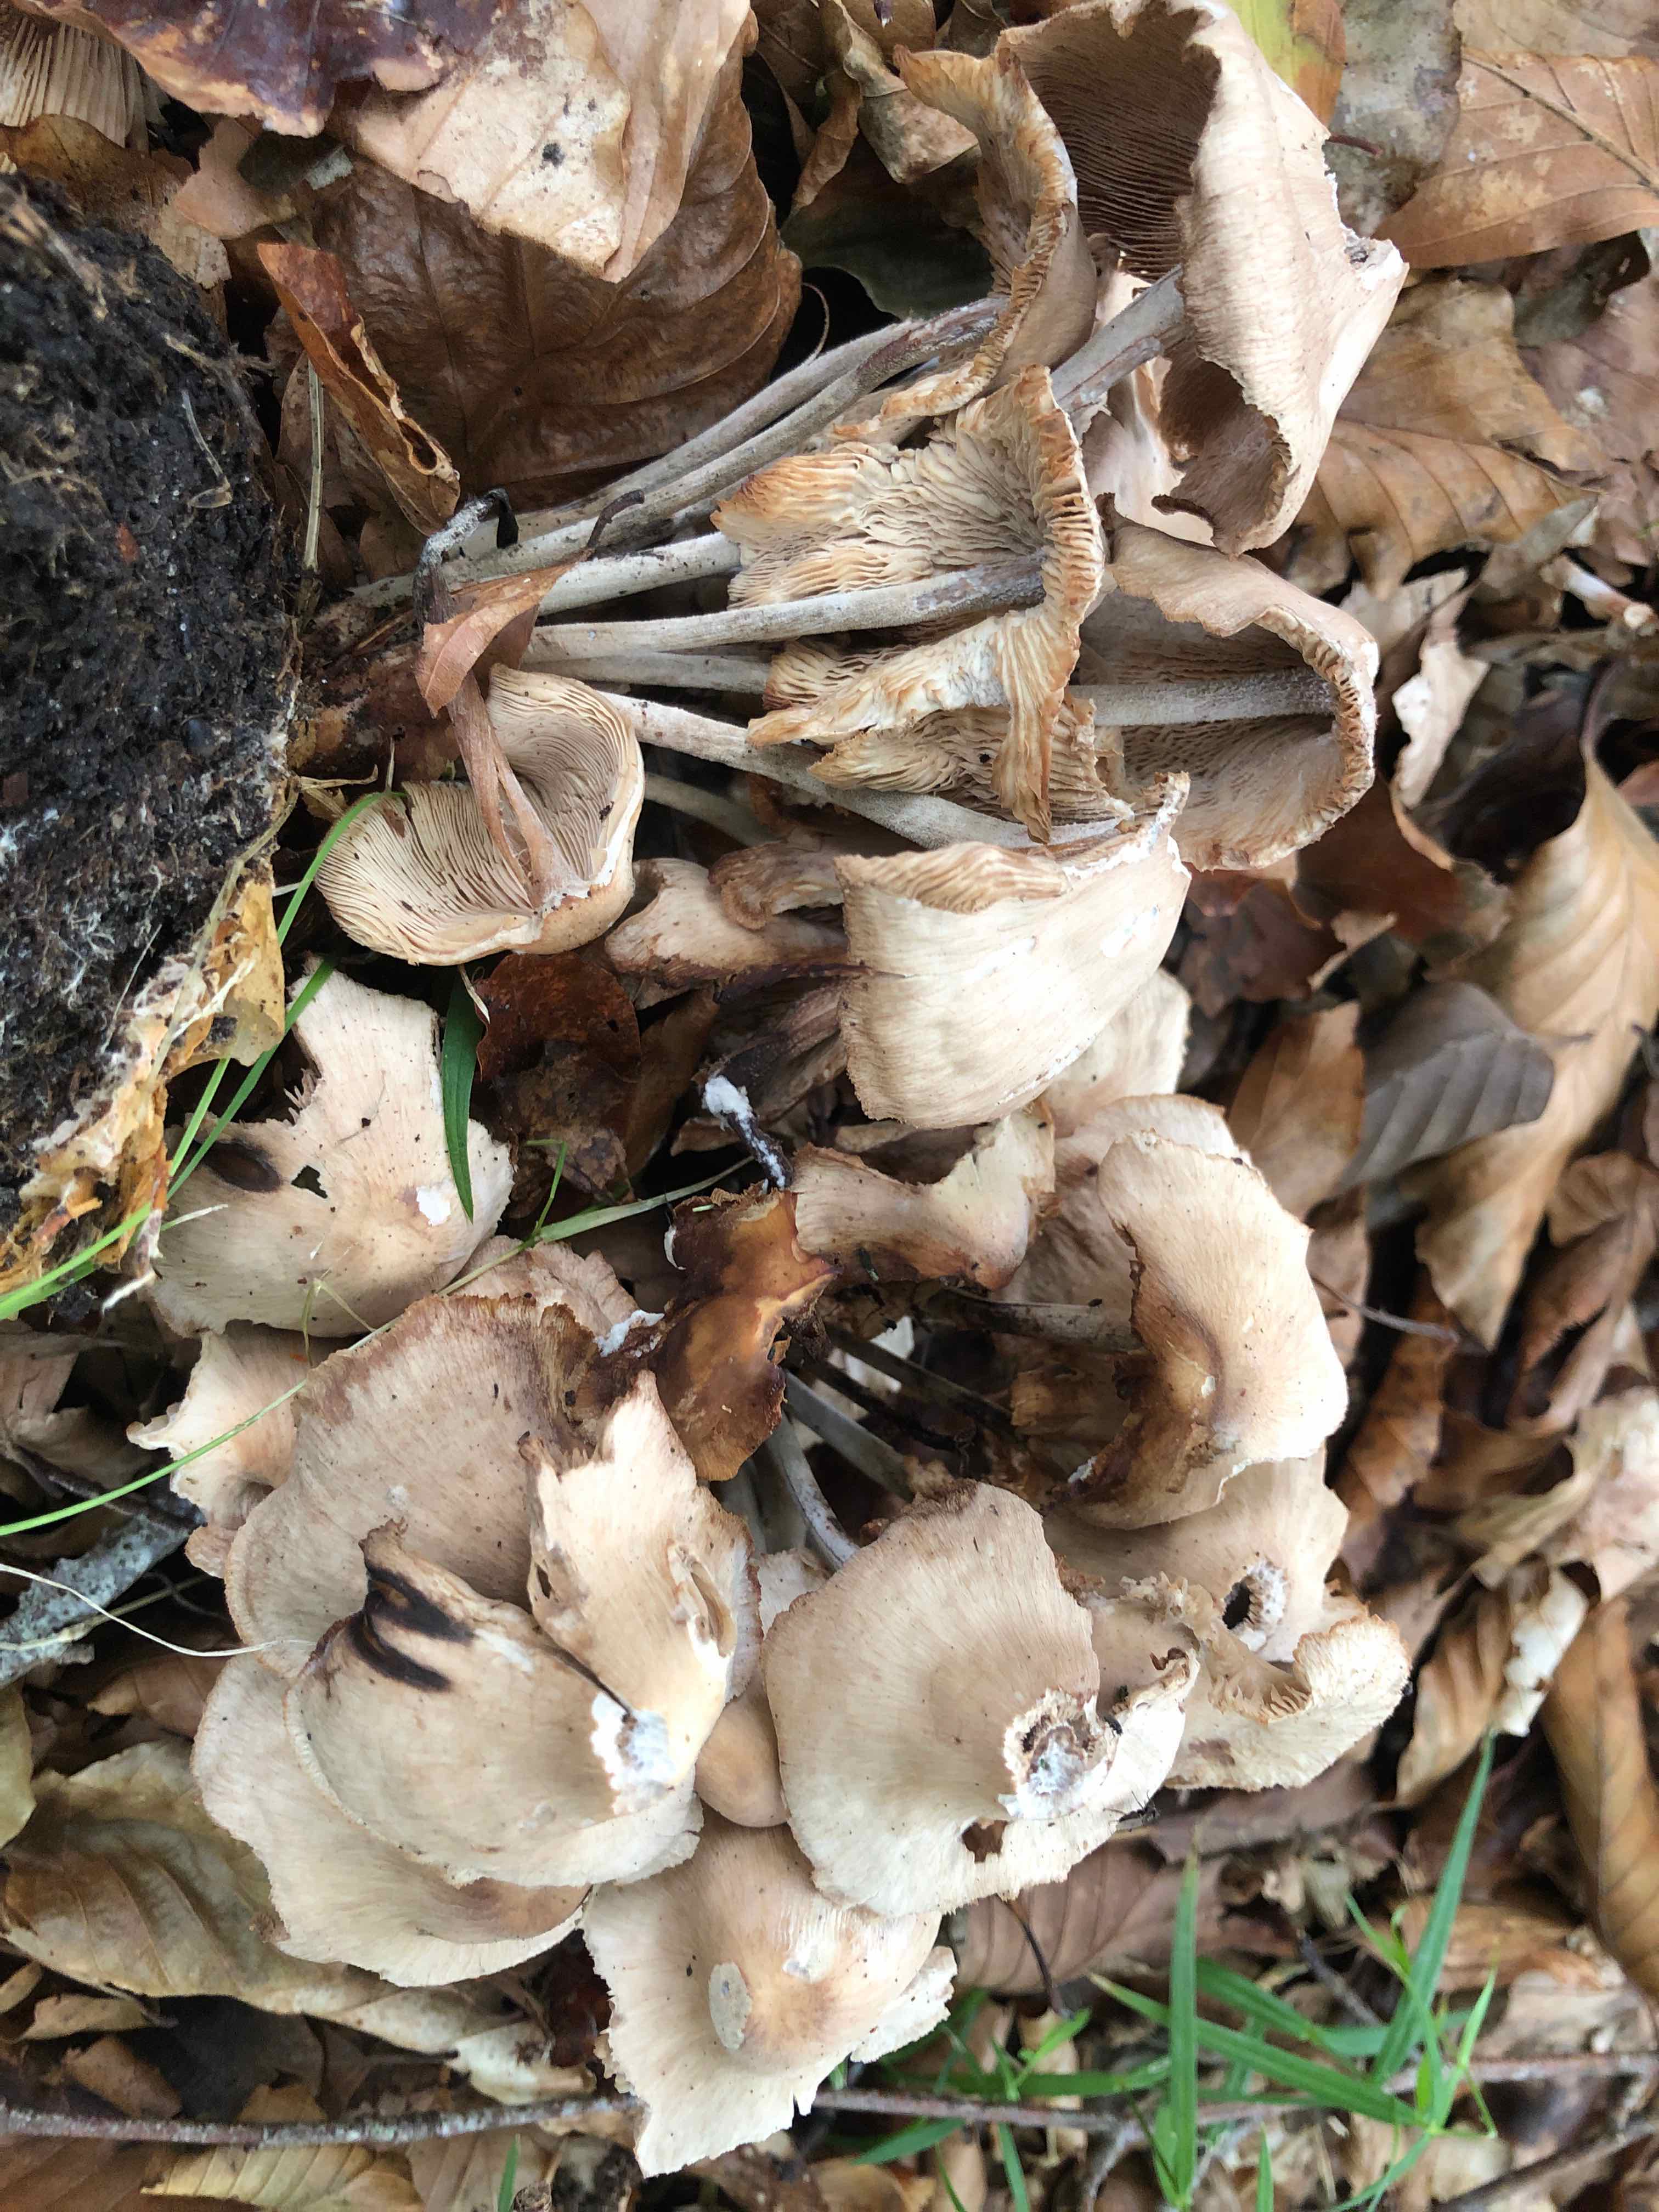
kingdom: Fungi
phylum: Basidiomycota
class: Agaricomycetes
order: Agaricales
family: Omphalotaceae
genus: Collybiopsis
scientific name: Collybiopsis confluens
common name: knippe-fladhat
